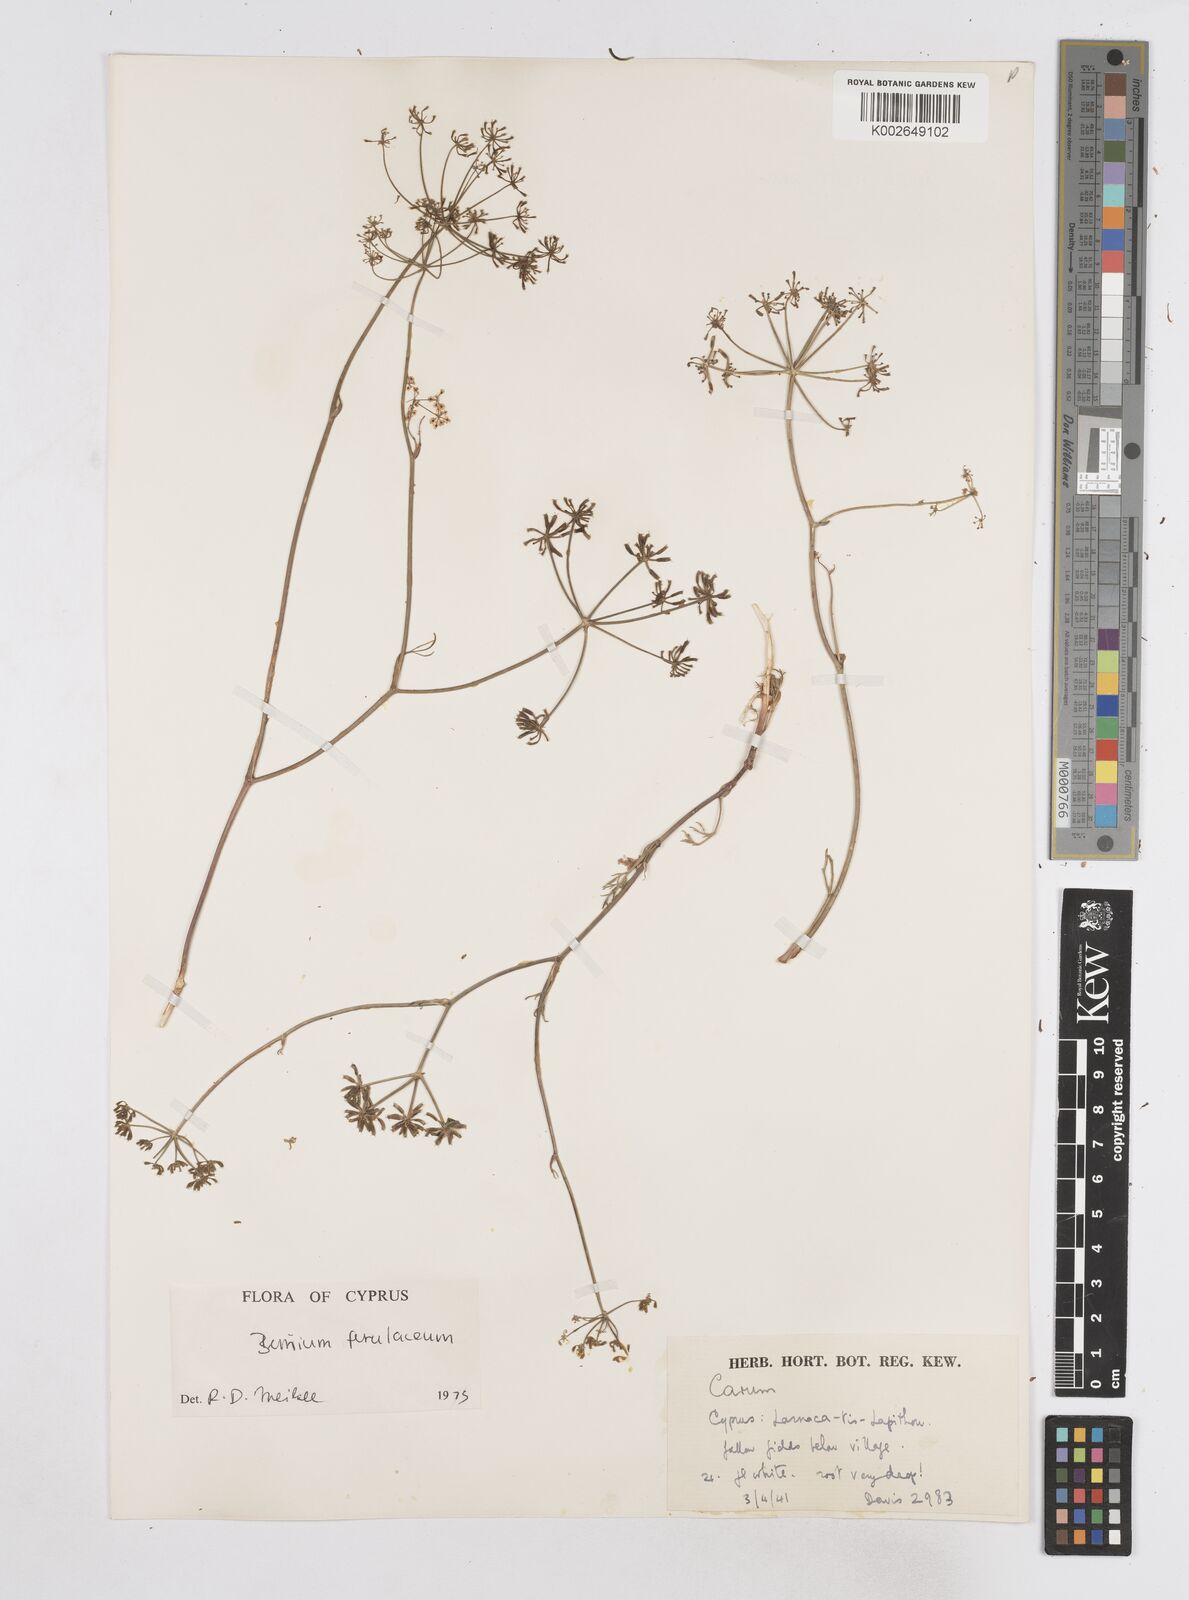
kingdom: Plantae
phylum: Tracheophyta
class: Magnoliopsida
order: Apiales
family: Apiaceae
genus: Bunium
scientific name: Bunium ferulaceum
